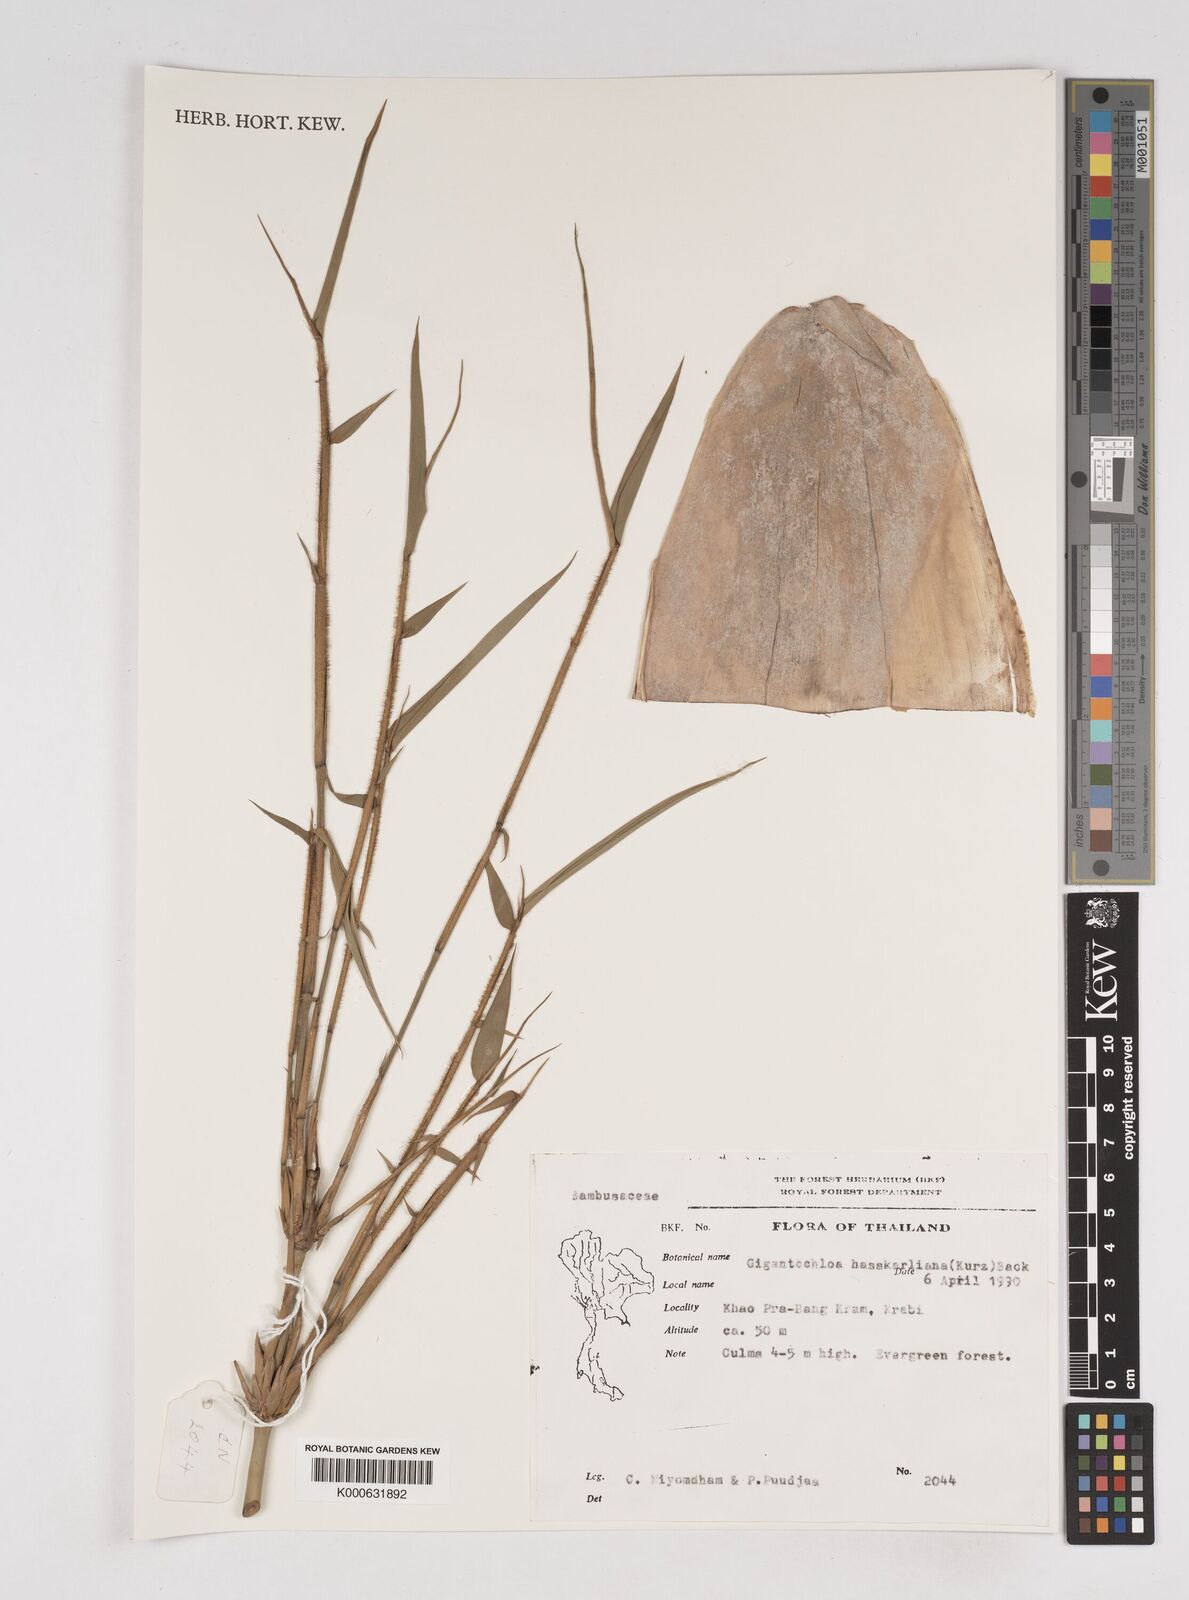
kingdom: Plantae
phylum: Tracheophyta
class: Liliopsida
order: Poales
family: Poaceae
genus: Gigantochloa
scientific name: Gigantochloa
